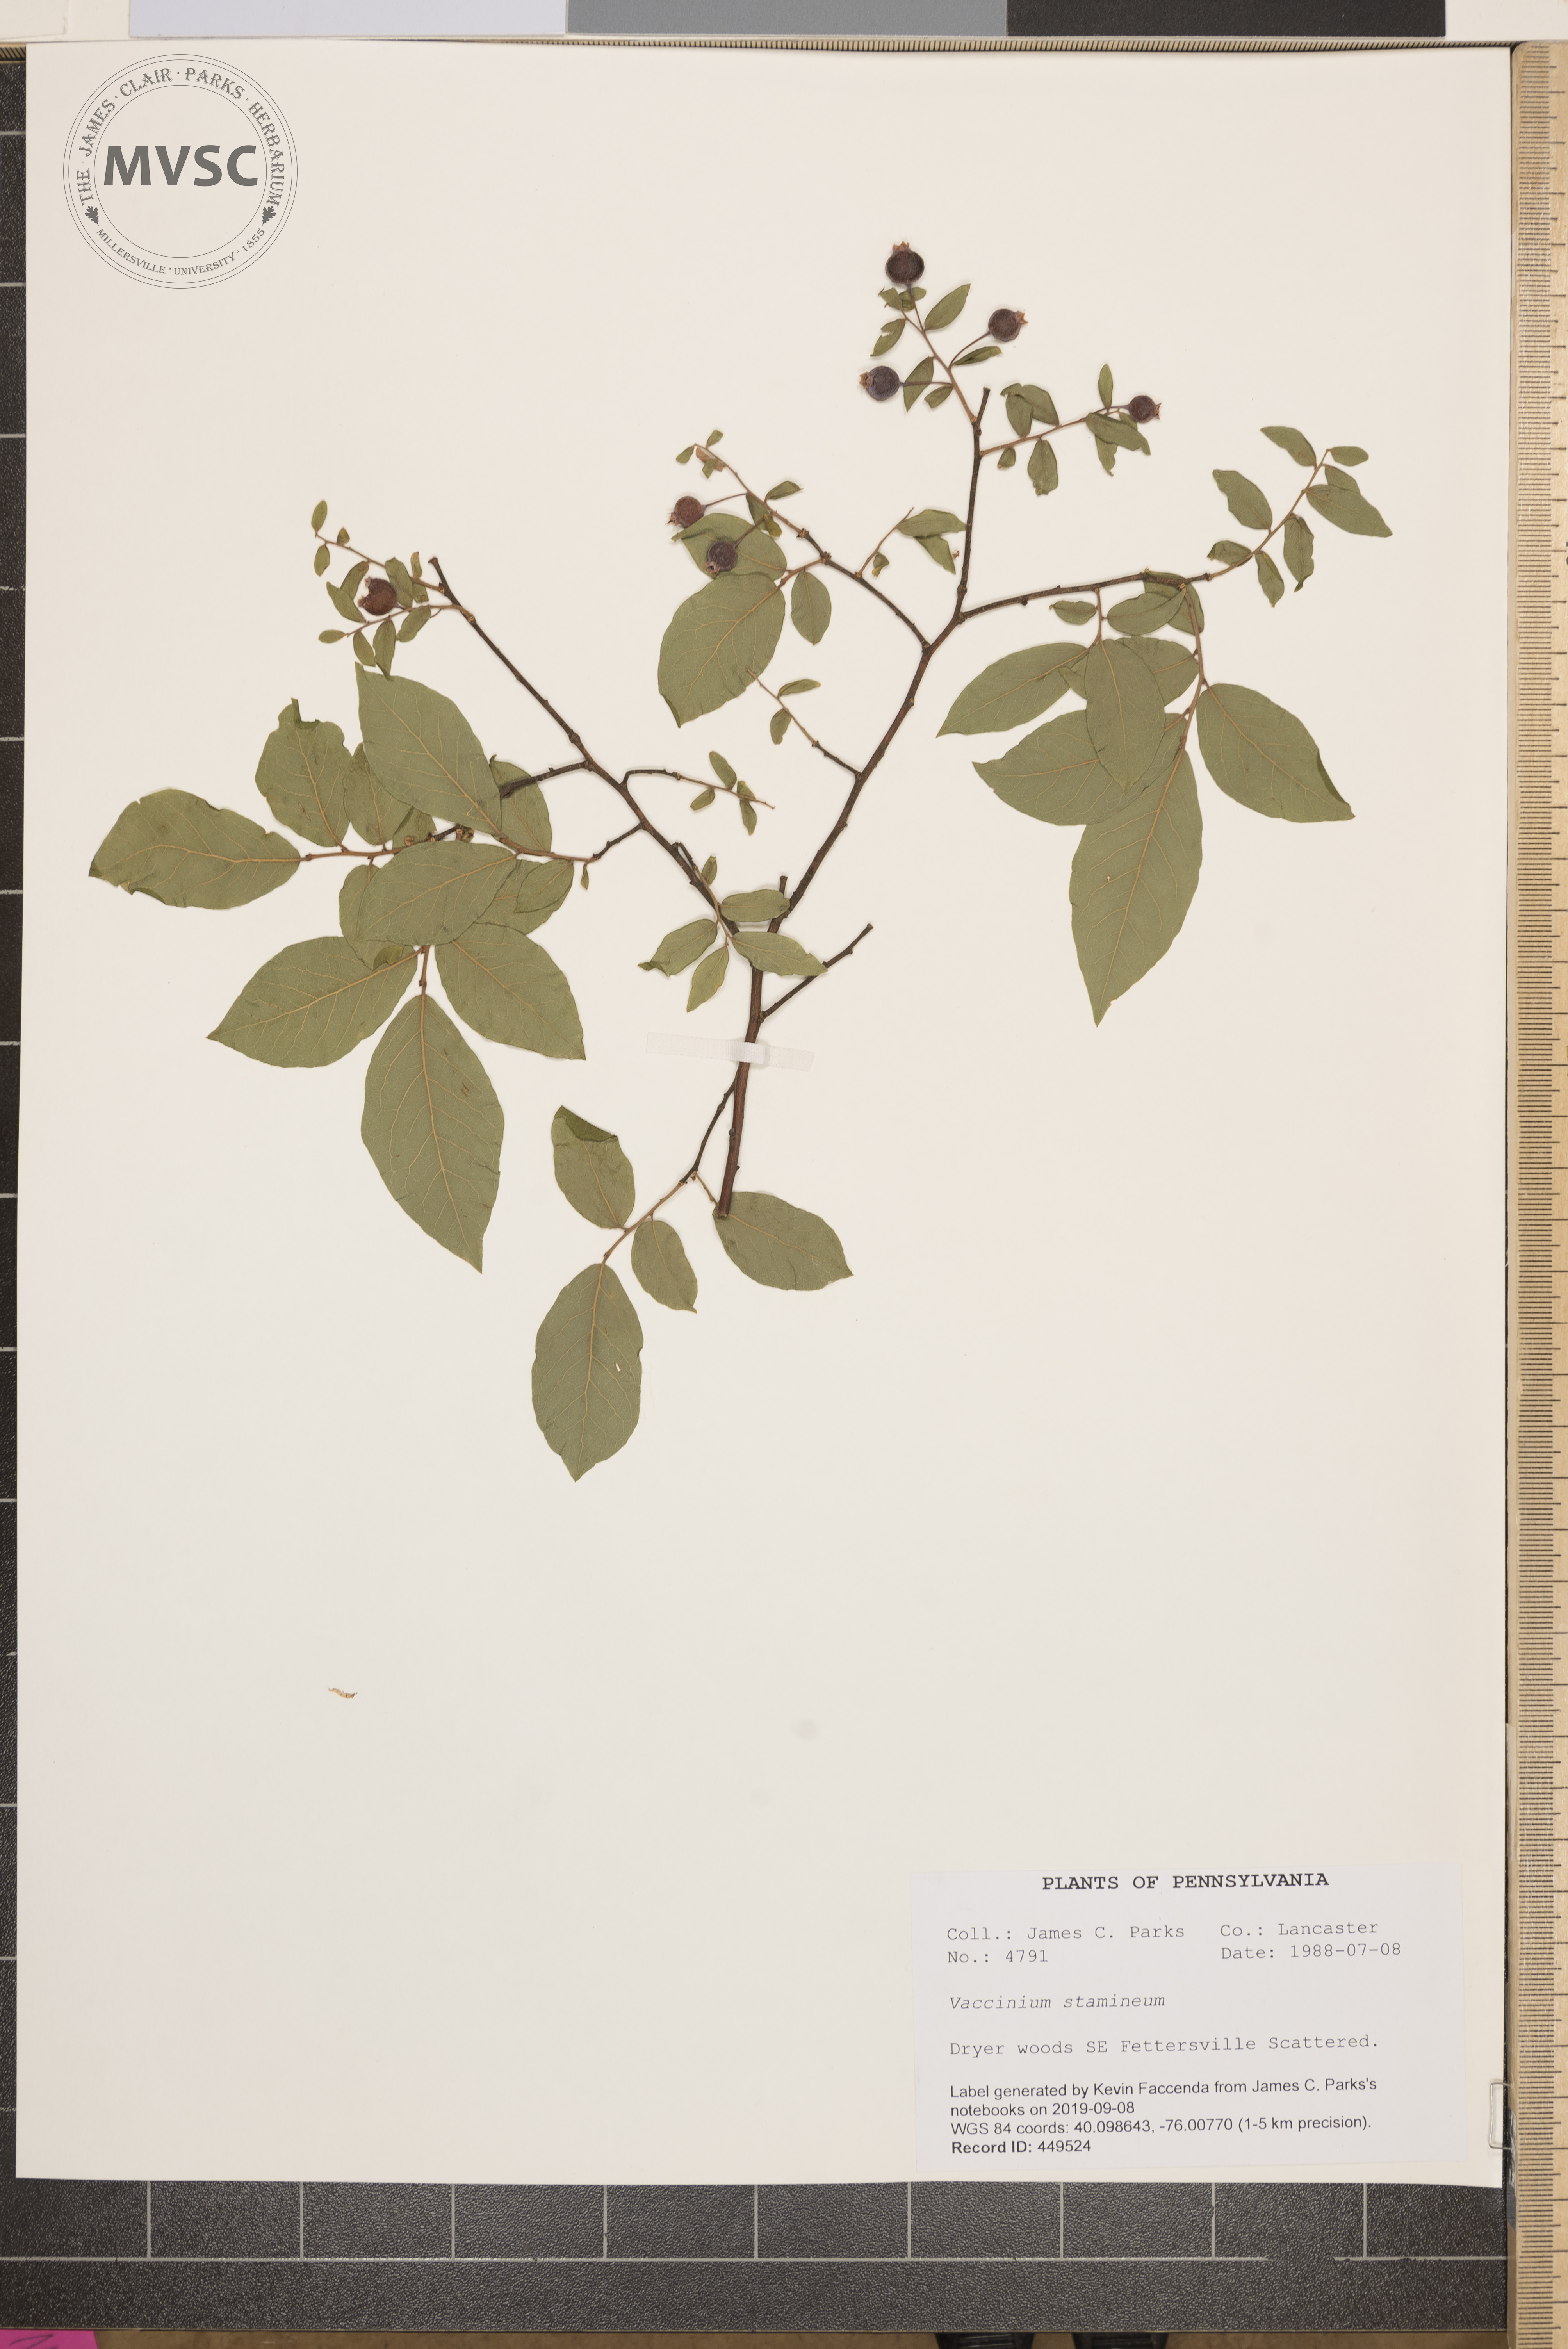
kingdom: Plantae
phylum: Tracheophyta
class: Magnoliopsida
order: Ericales
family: Ericaceae
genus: Vaccinium
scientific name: Vaccinium stamineum
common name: Deerberry
